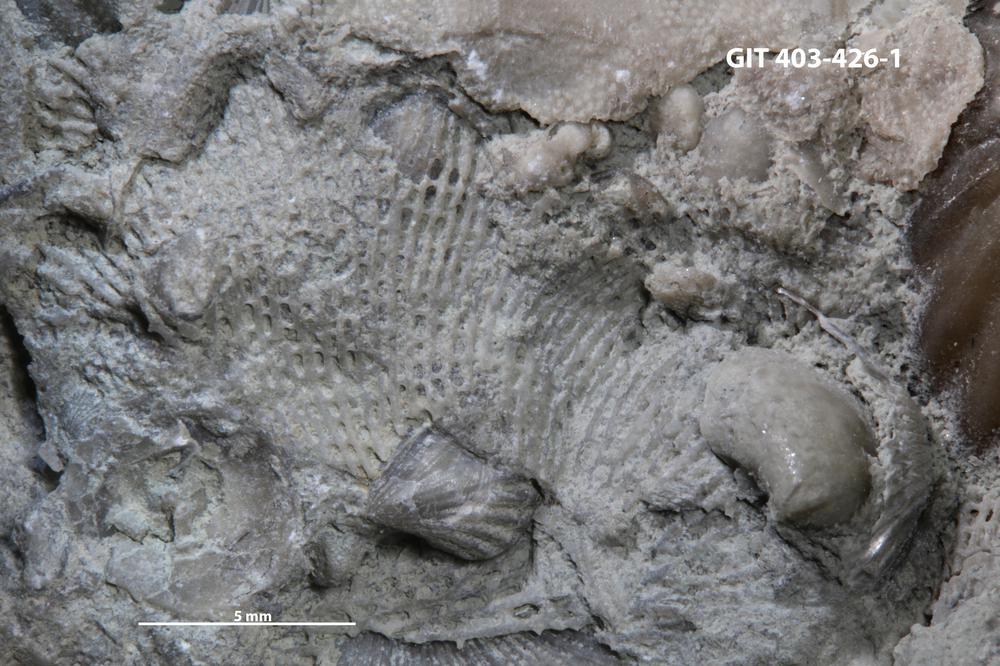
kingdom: Animalia
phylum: Bryozoa
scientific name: Bryozoa
